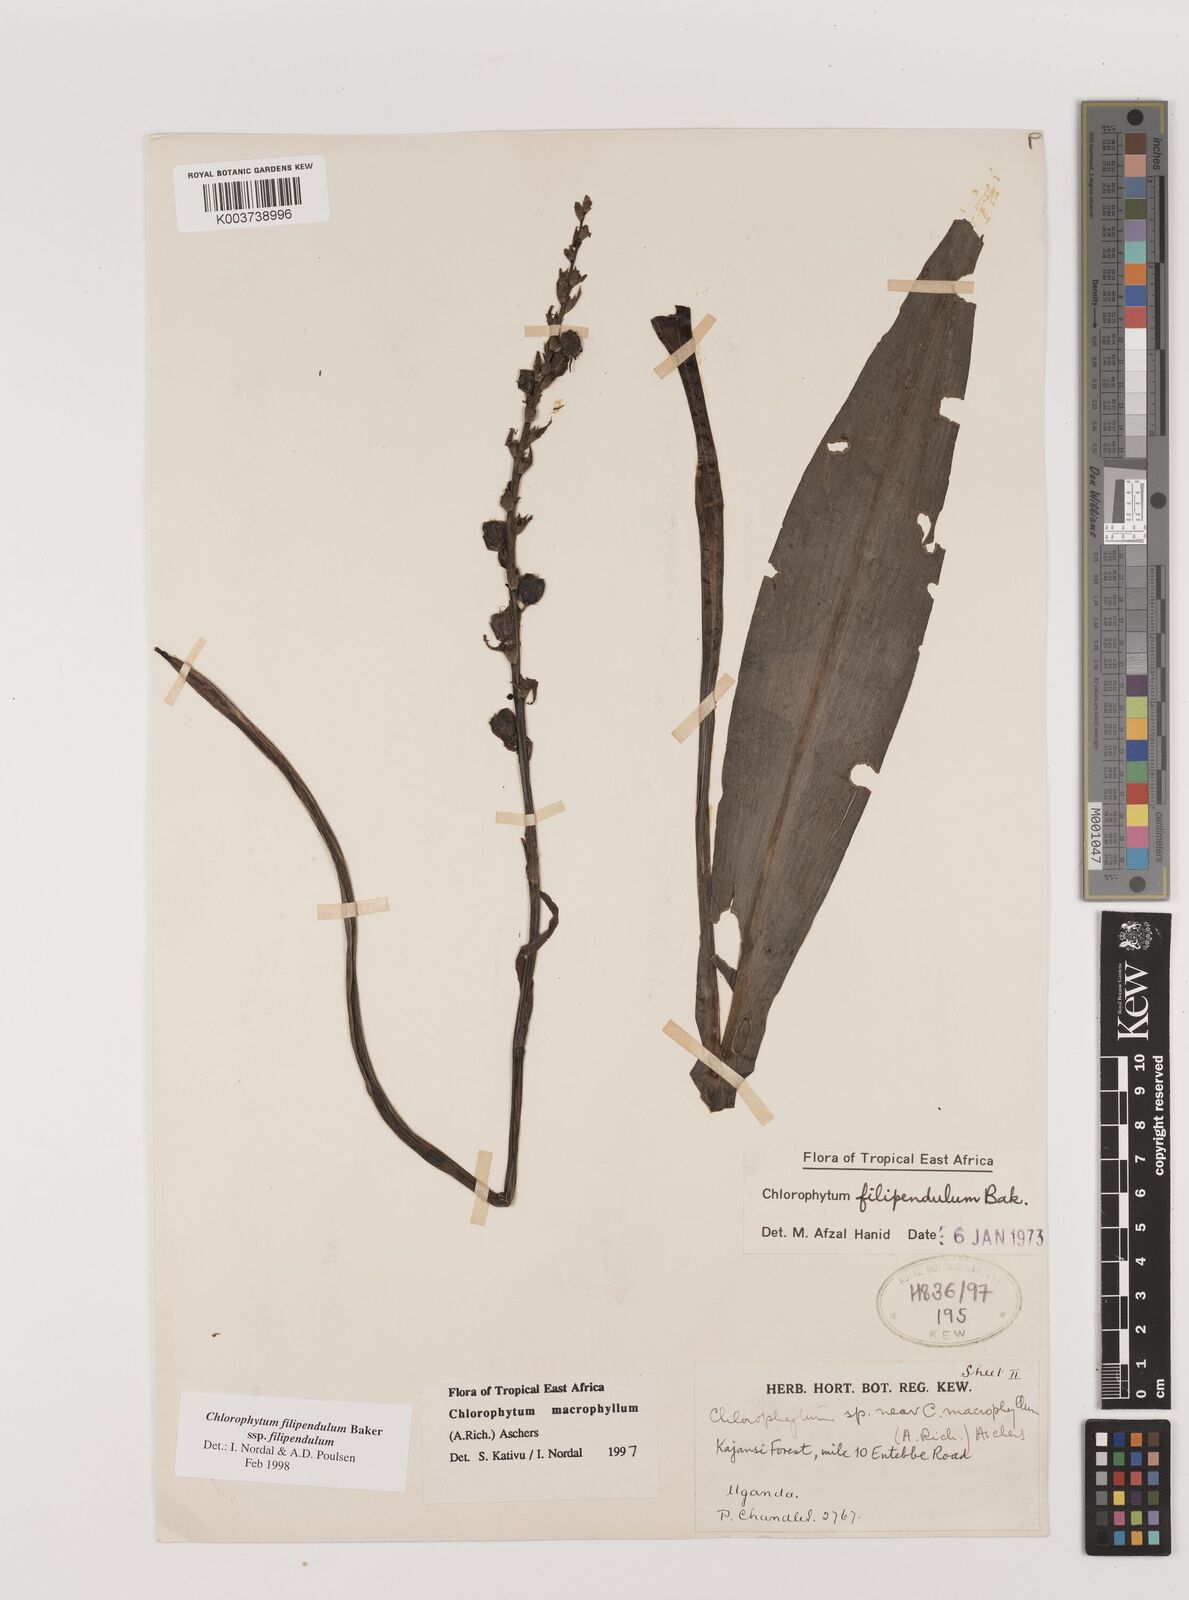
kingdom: Plantae
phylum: Tracheophyta
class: Liliopsida
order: Asparagales
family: Asparagaceae
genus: Chlorophytum
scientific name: Chlorophytum filipendulum
